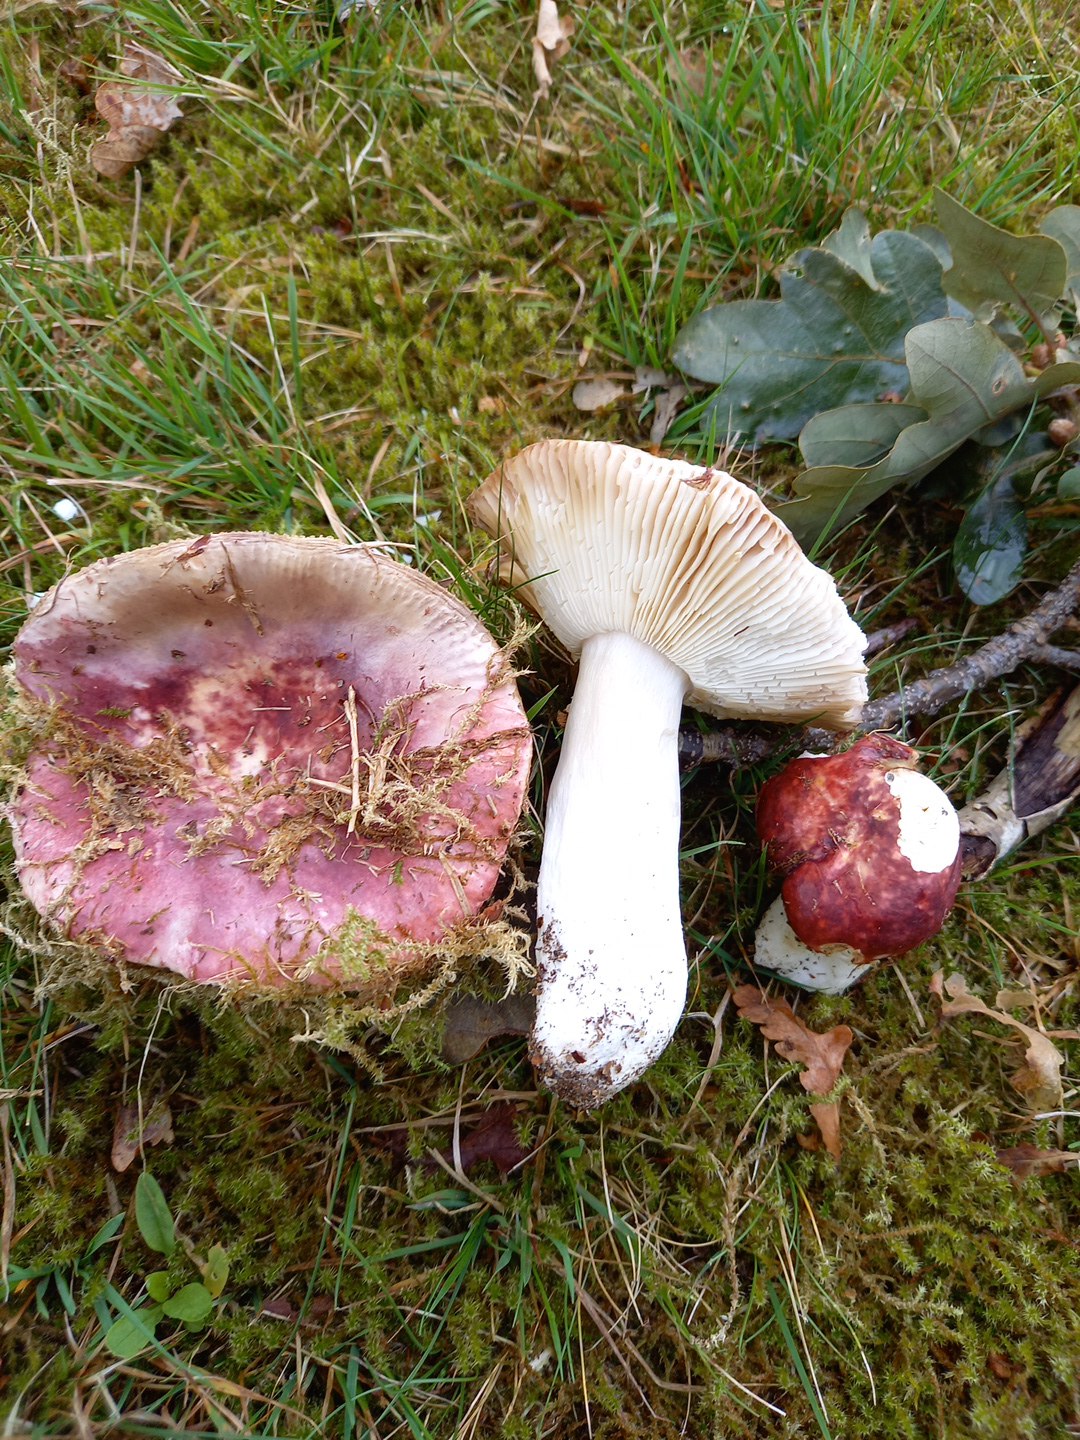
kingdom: Fungi
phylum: Basidiomycota
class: Agaricomycetes
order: Russulales
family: Russulaceae
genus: Russula
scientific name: Russula atropurpurea
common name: purpurbroget skørhat
